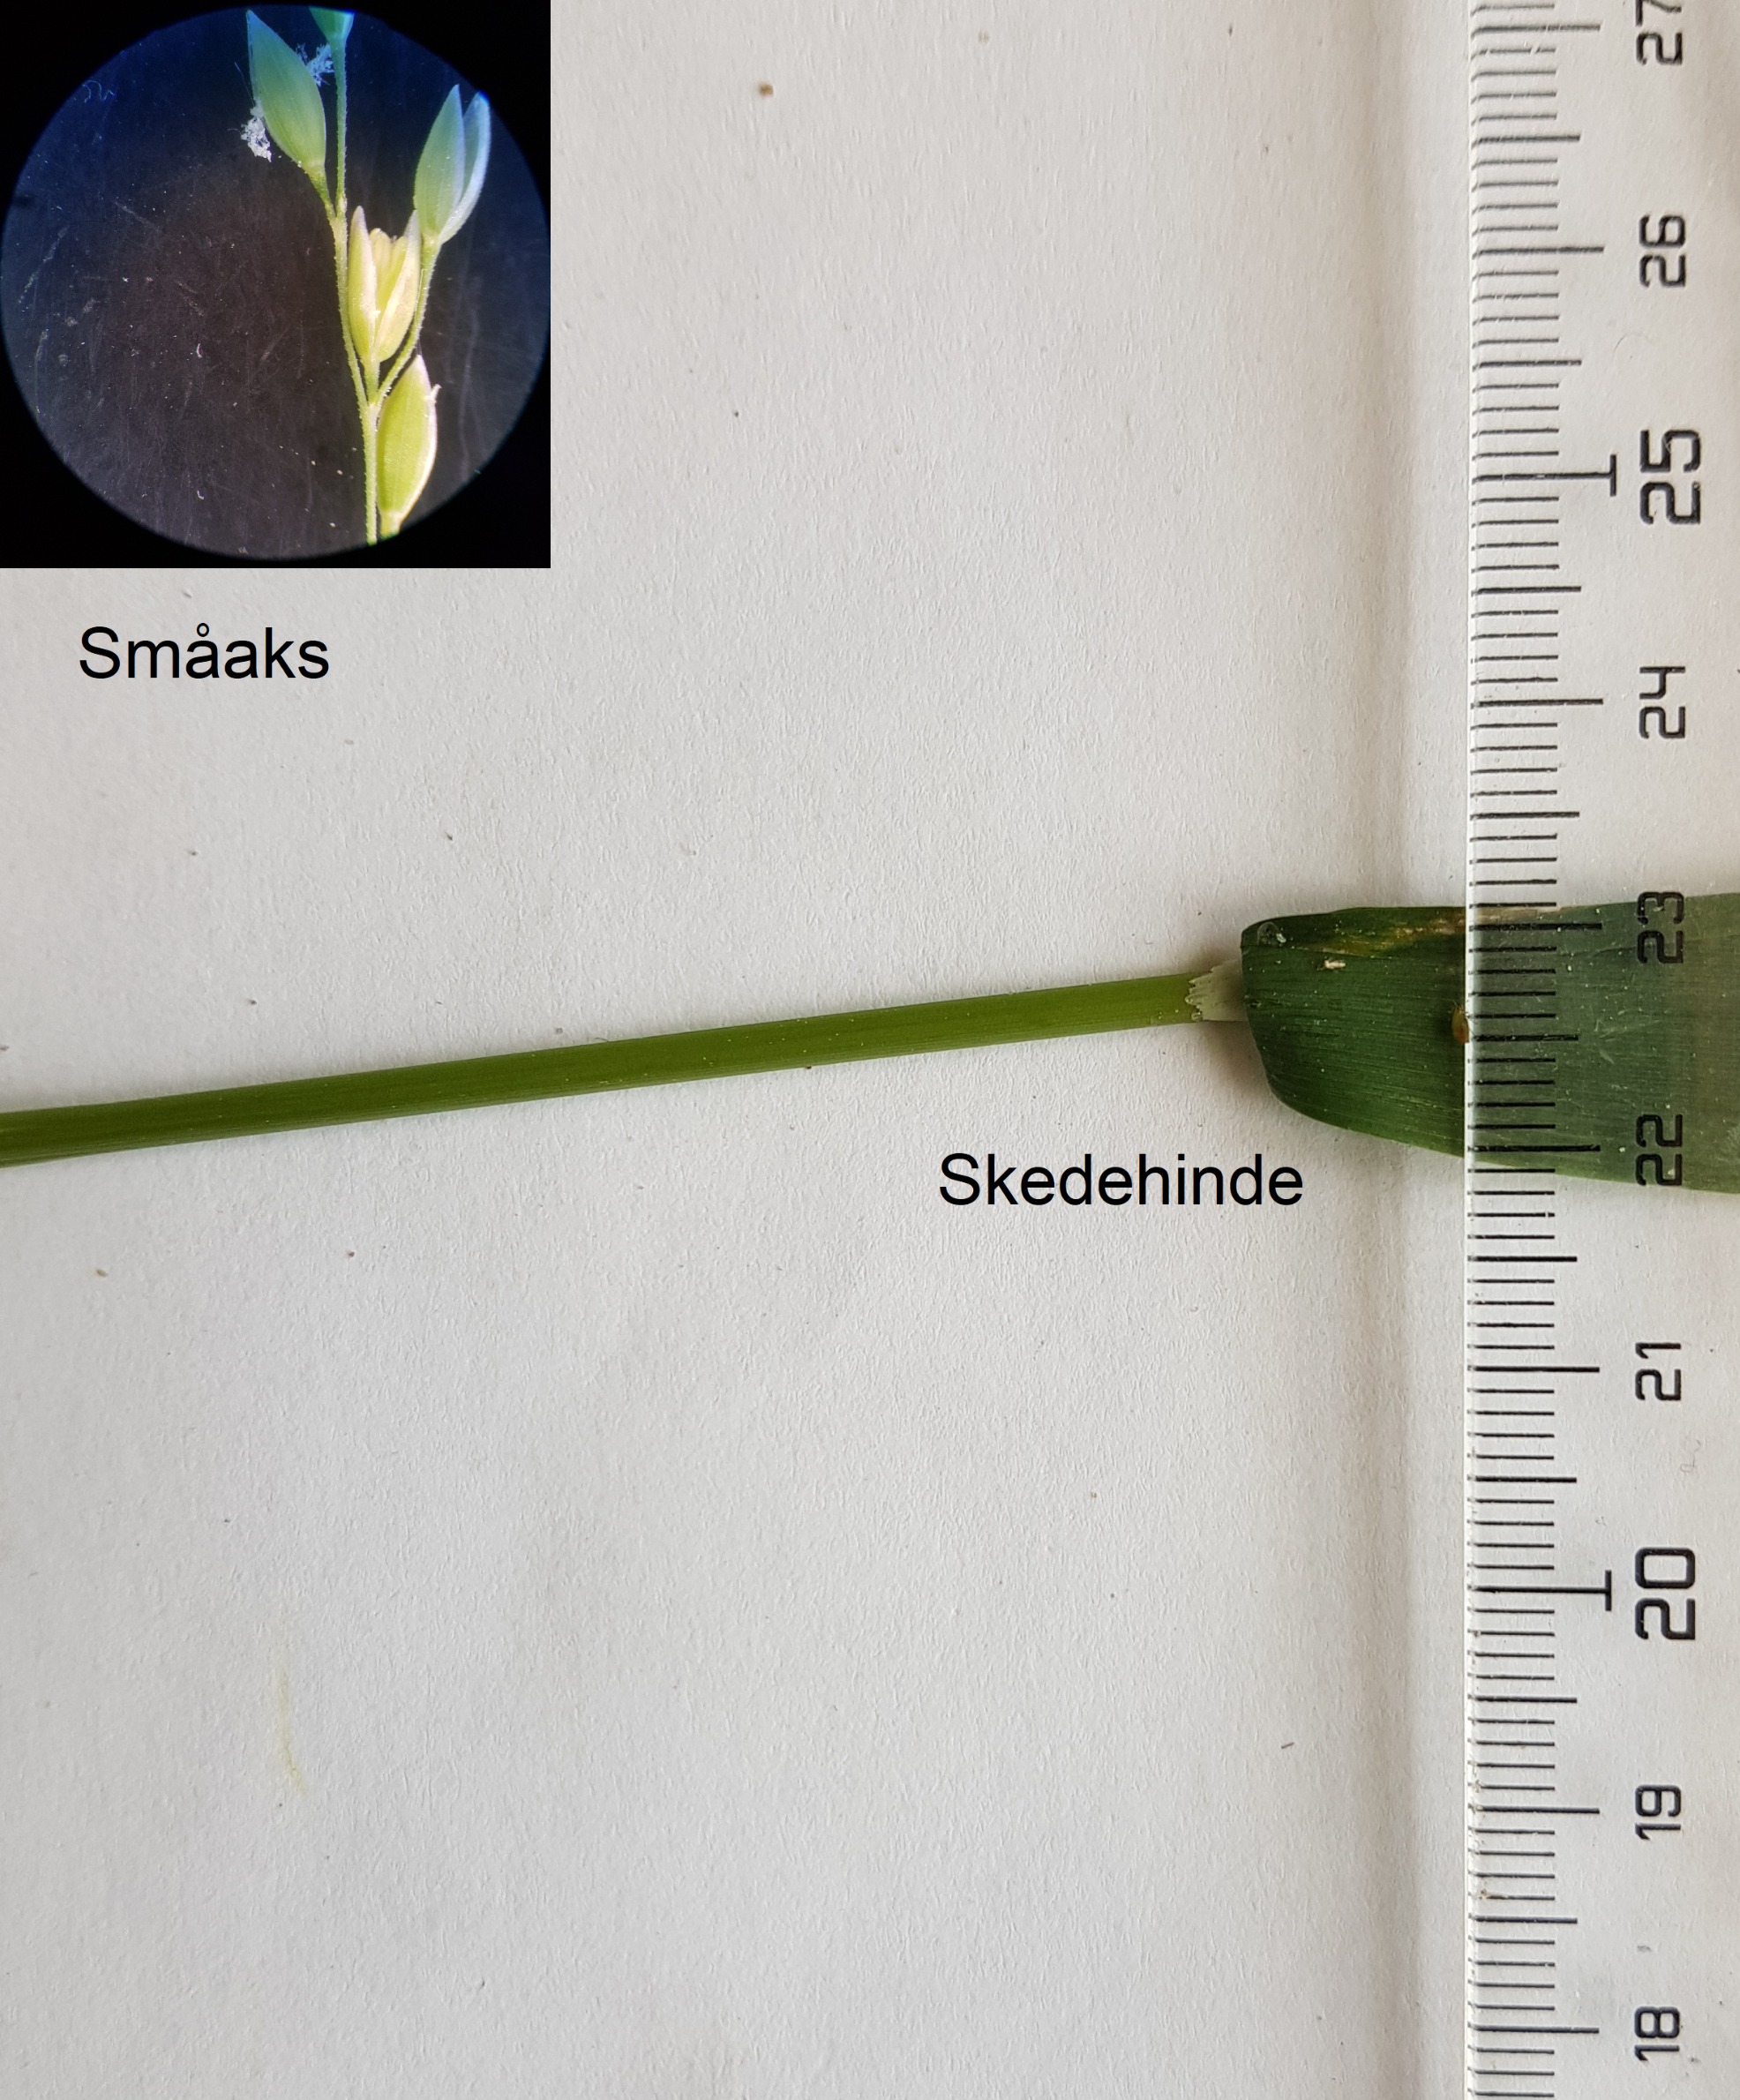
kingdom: Plantae
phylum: Tracheophyta
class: Liliopsida
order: Poales
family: Poaceae
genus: Milium
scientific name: Milium effusum
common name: Miliegræs
